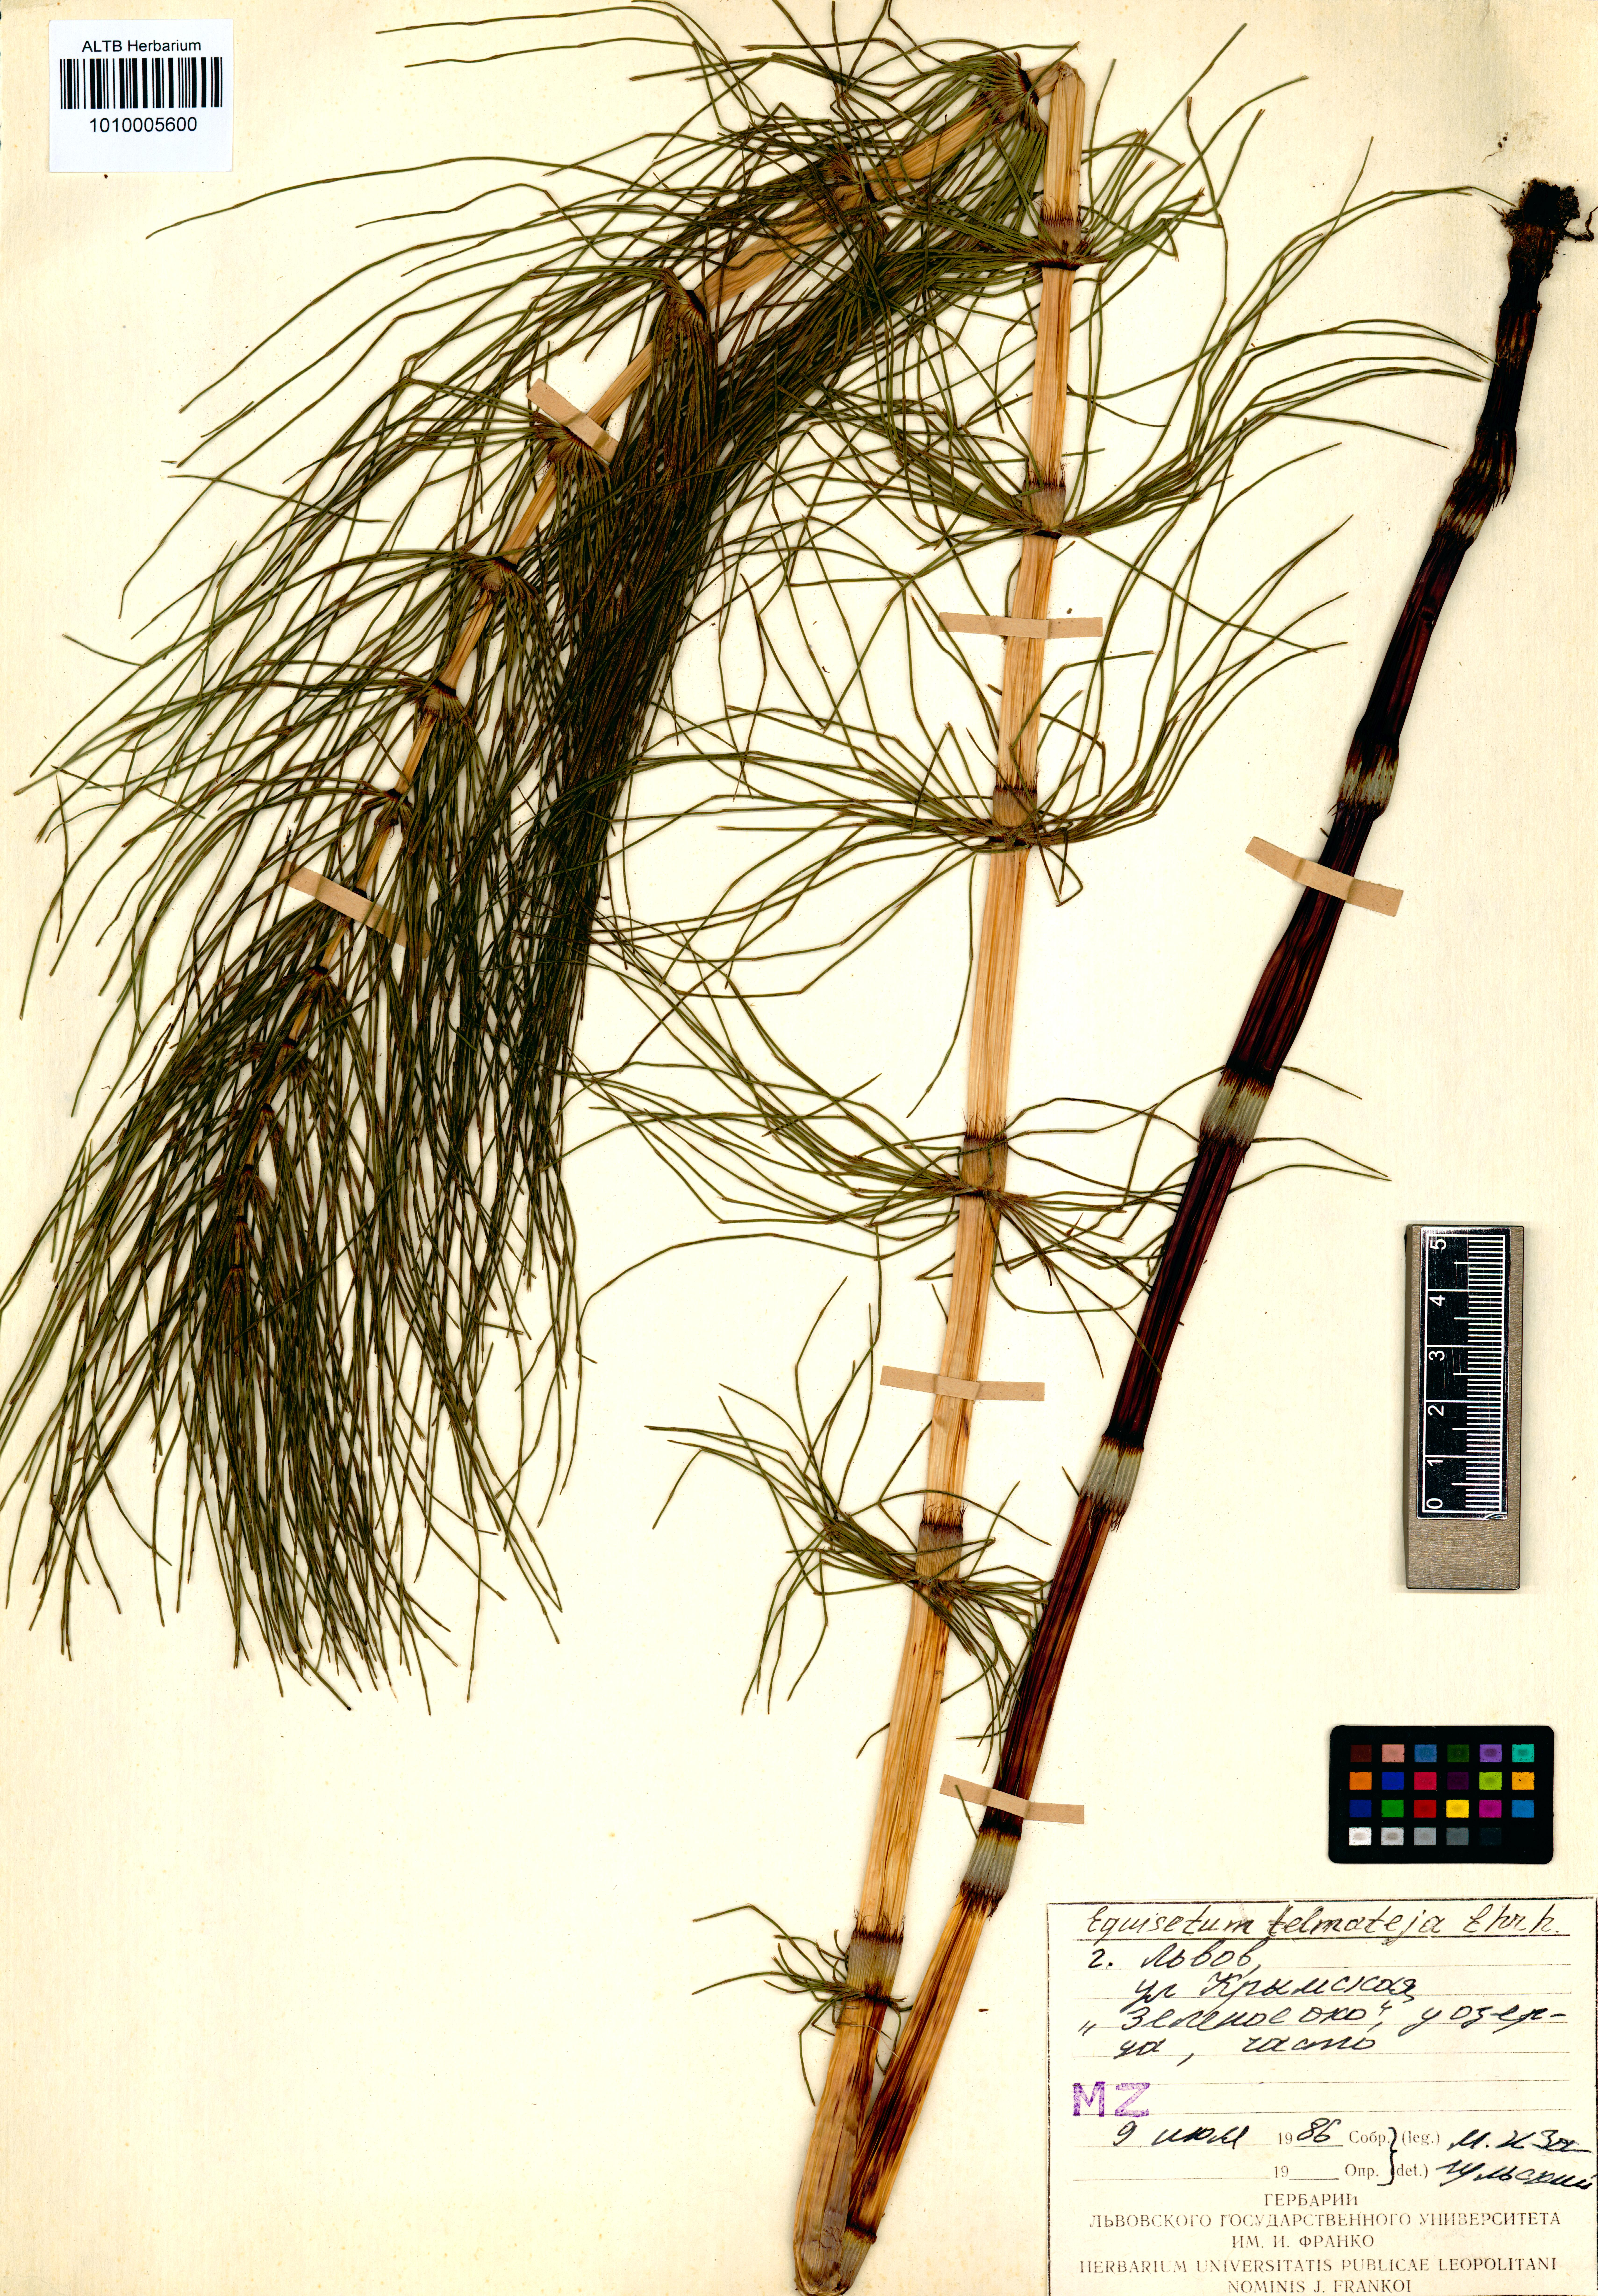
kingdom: Plantae
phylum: Tracheophyta
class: Polypodiopsida
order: Equisetales
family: Equisetaceae
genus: Equisetum
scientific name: Equisetum telmateia
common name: Great horsetail
